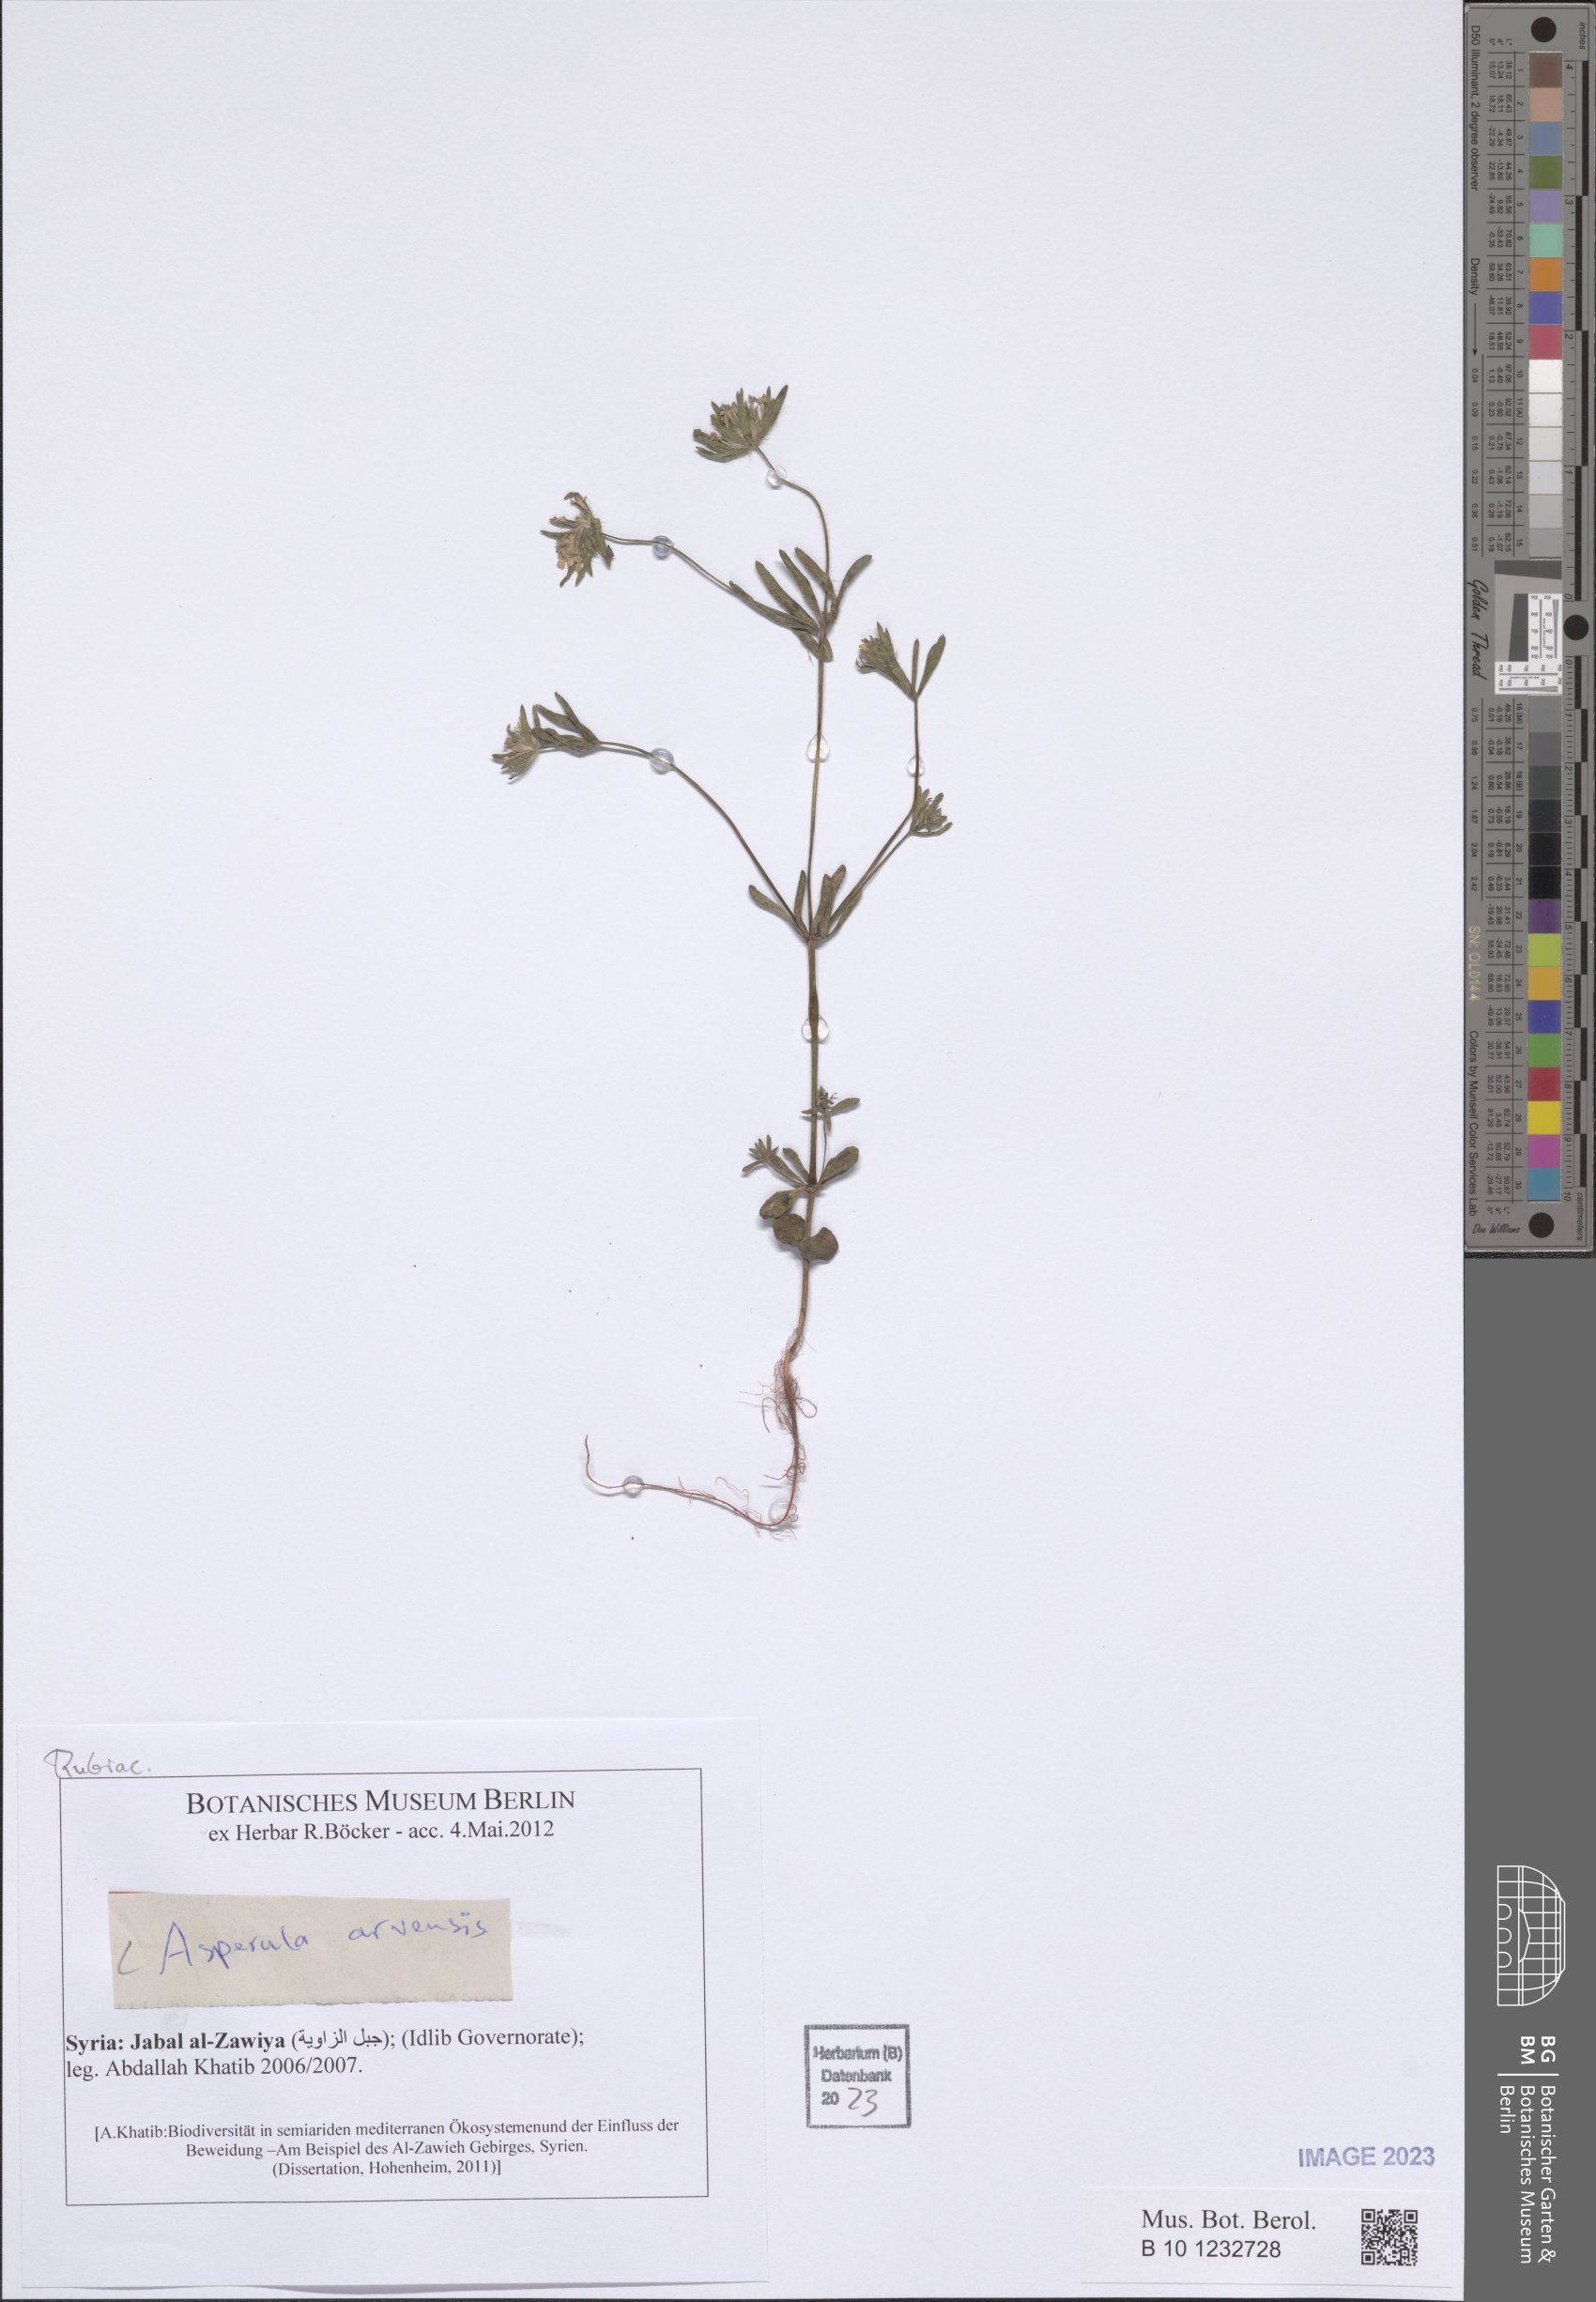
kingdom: Plantae
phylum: Tracheophyta
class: Magnoliopsida
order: Gentianales
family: Rubiaceae
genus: Asperula
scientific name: Asperula arvensis
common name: Blue woodruff
